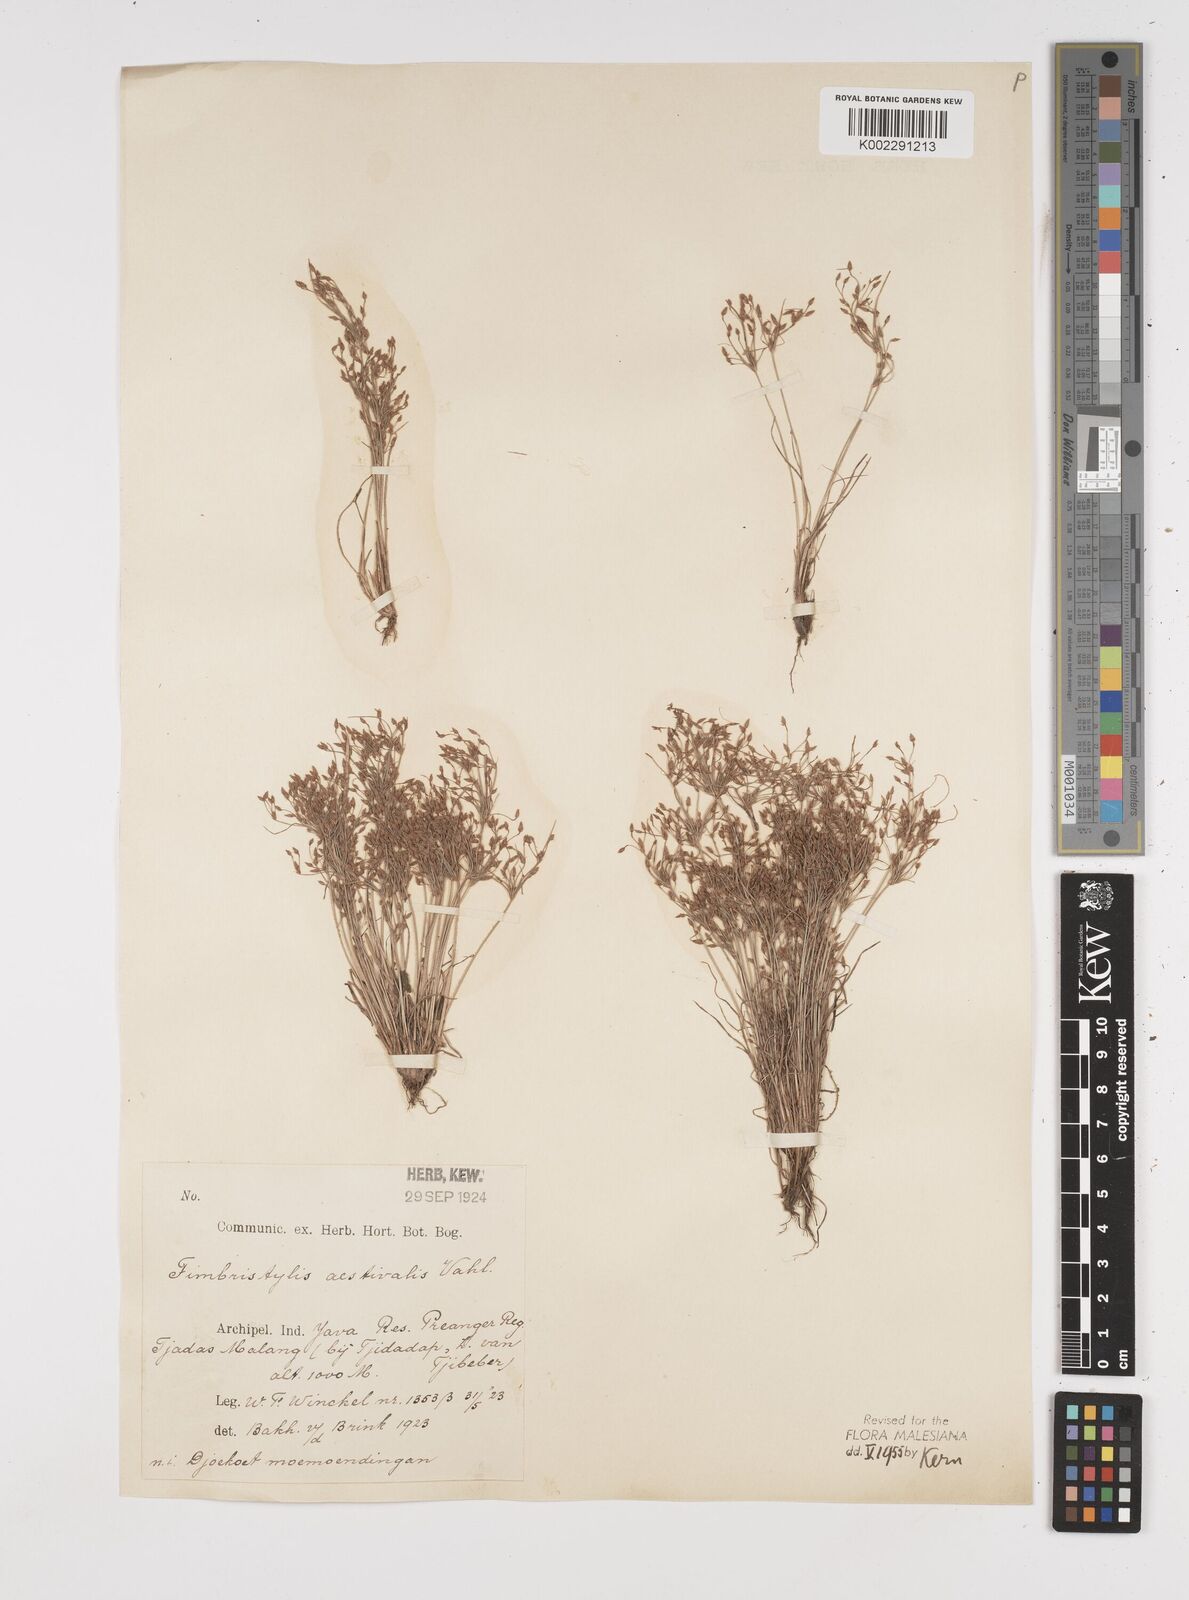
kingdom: Plantae
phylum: Tracheophyta
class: Liliopsida
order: Poales
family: Cyperaceae
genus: Fimbristylis
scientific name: Fimbristylis aestivalis
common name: Summer fimbry
